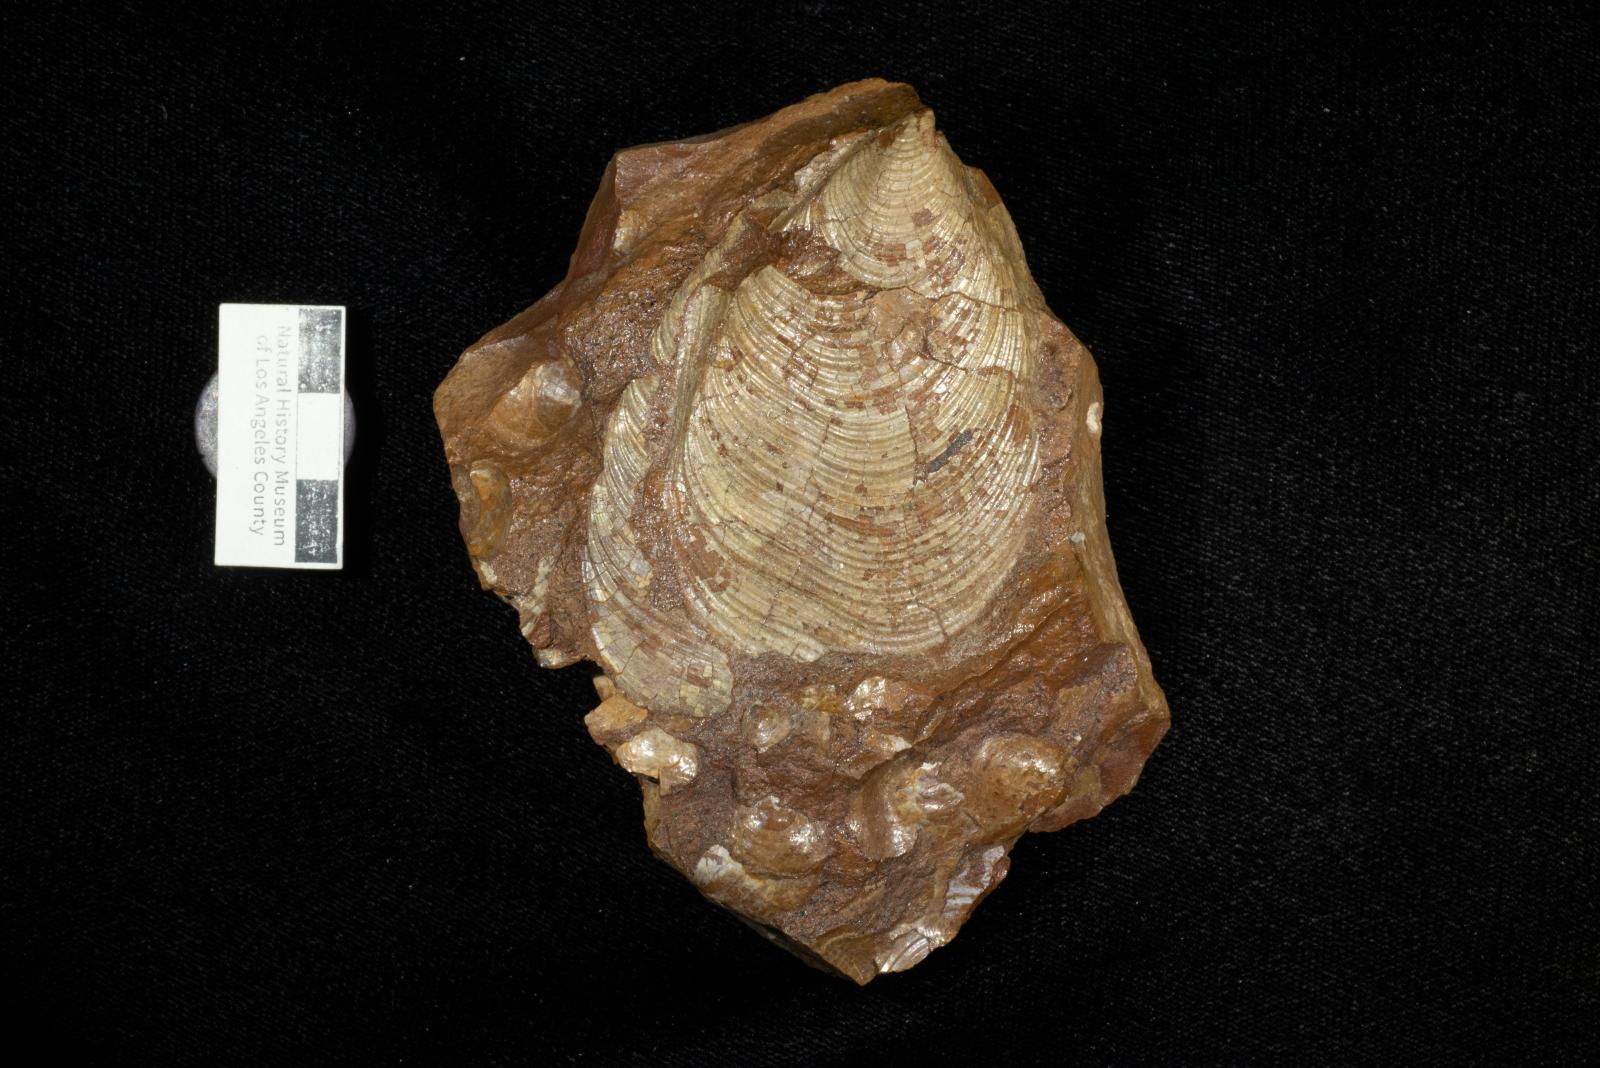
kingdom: Animalia
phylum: Mollusca
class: Bivalvia
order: Myalinida
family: Inoceramidae
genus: Sphenoceramus
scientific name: Sphenoceramus Inoceramus orientalis
